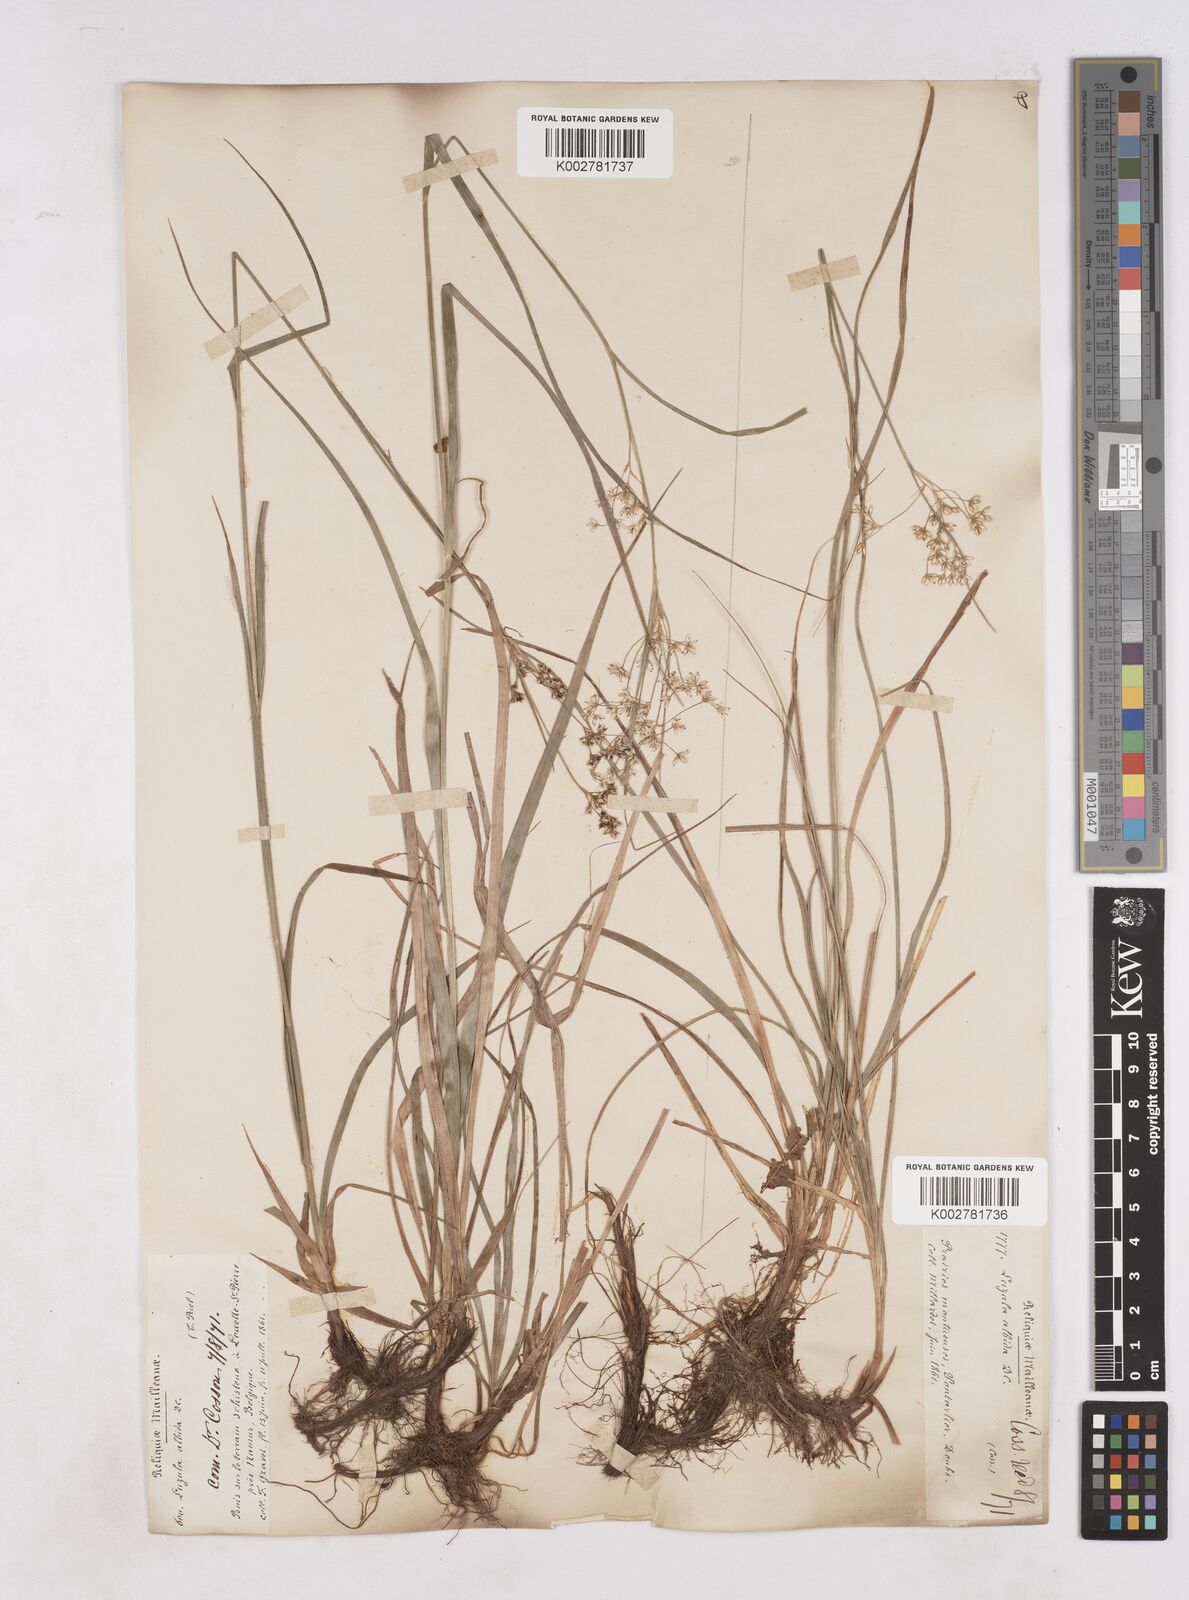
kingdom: Plantae
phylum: Tracheophyta
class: Liliopsida
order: Poales
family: Juncaceae
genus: Luzula
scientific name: Luzula luzuloides
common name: White wood-rush
